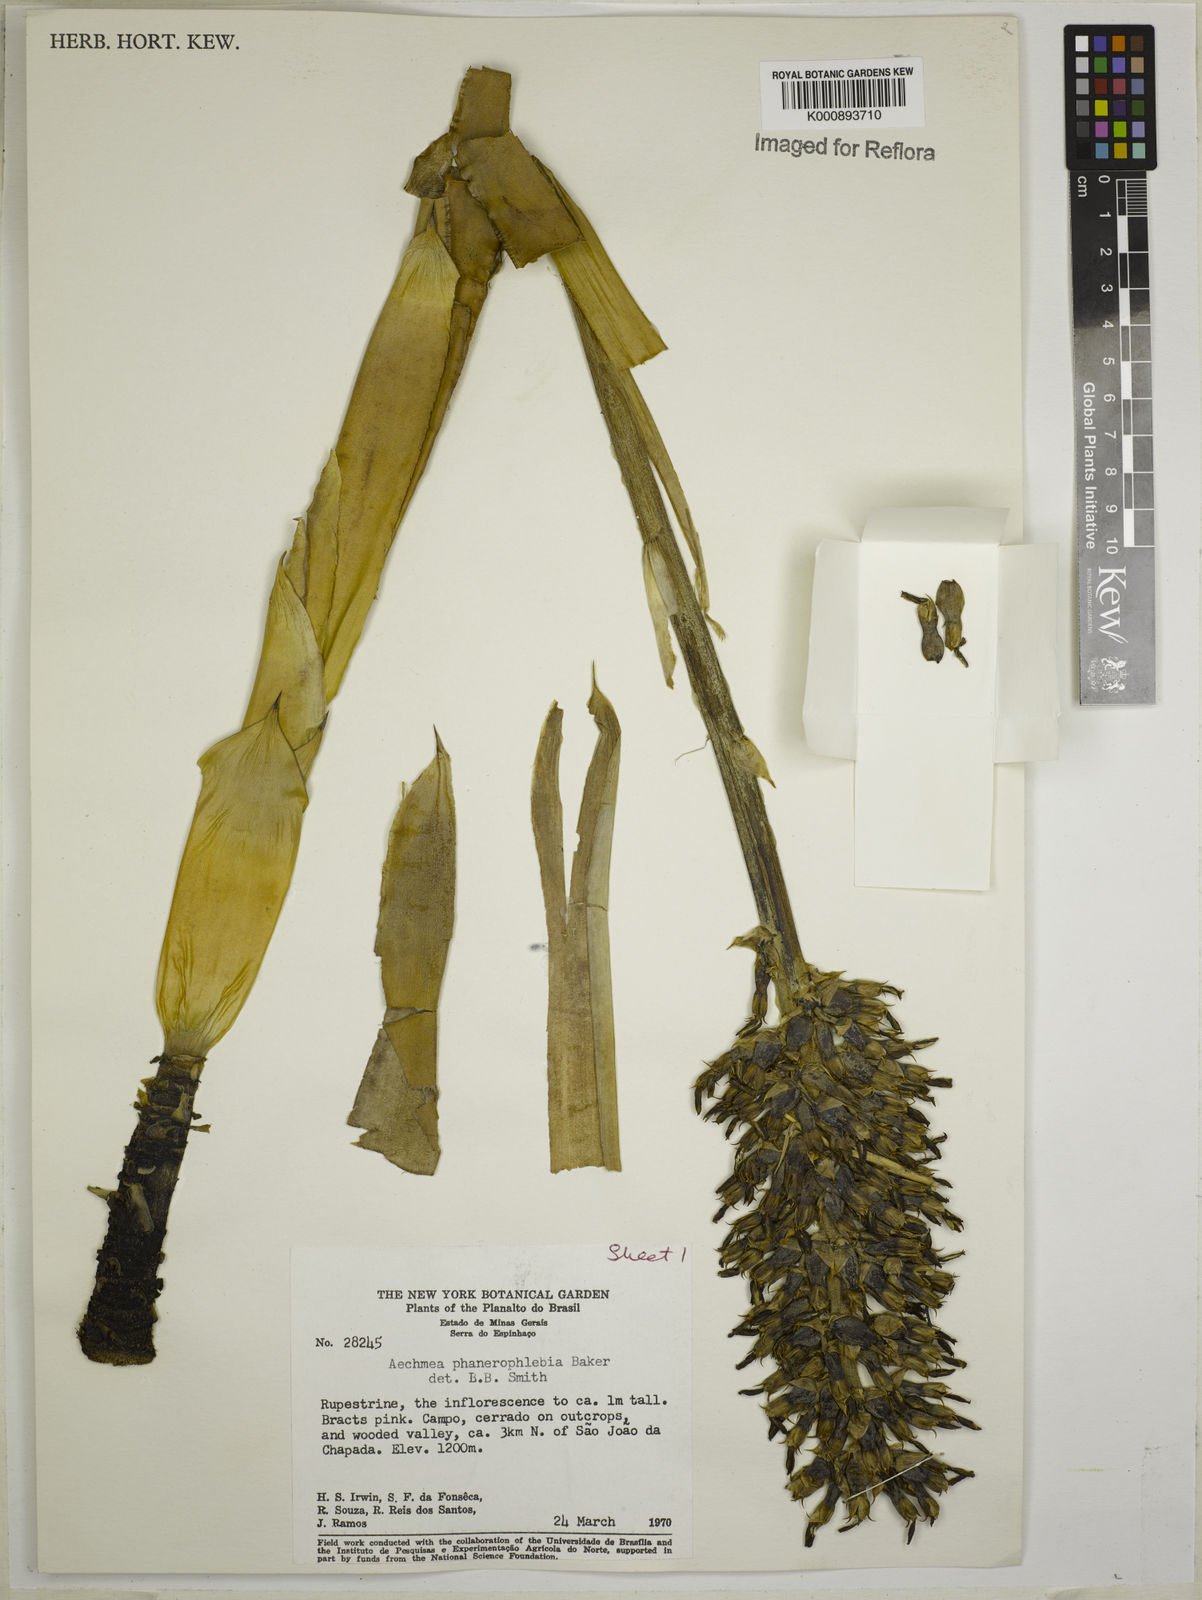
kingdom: Plantae
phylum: Tracheophyta
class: Liliopsida
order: Poales
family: Bromeliaceae
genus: Aechmea
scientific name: Aechmea phanerophlebia
